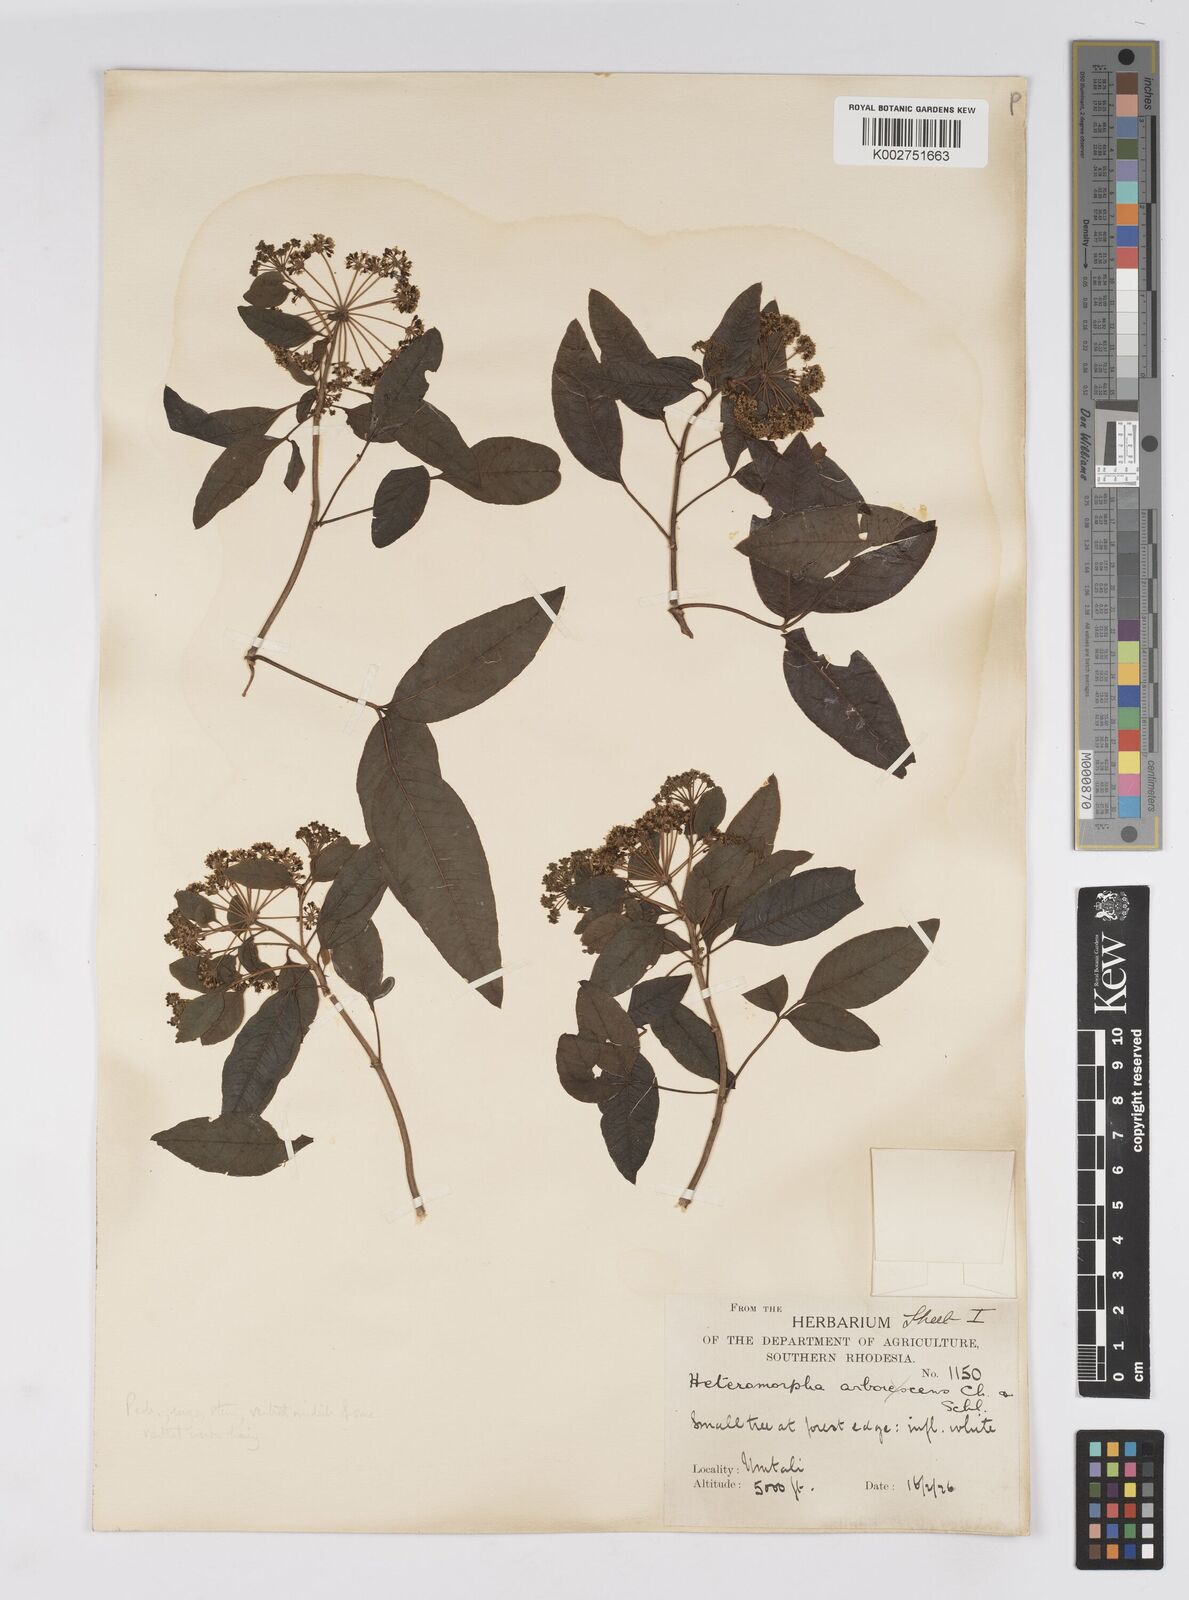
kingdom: Plantae
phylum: Tracheophyta
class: Magnoliopsida
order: Apiales
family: Apiaceae
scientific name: Apiaceae
